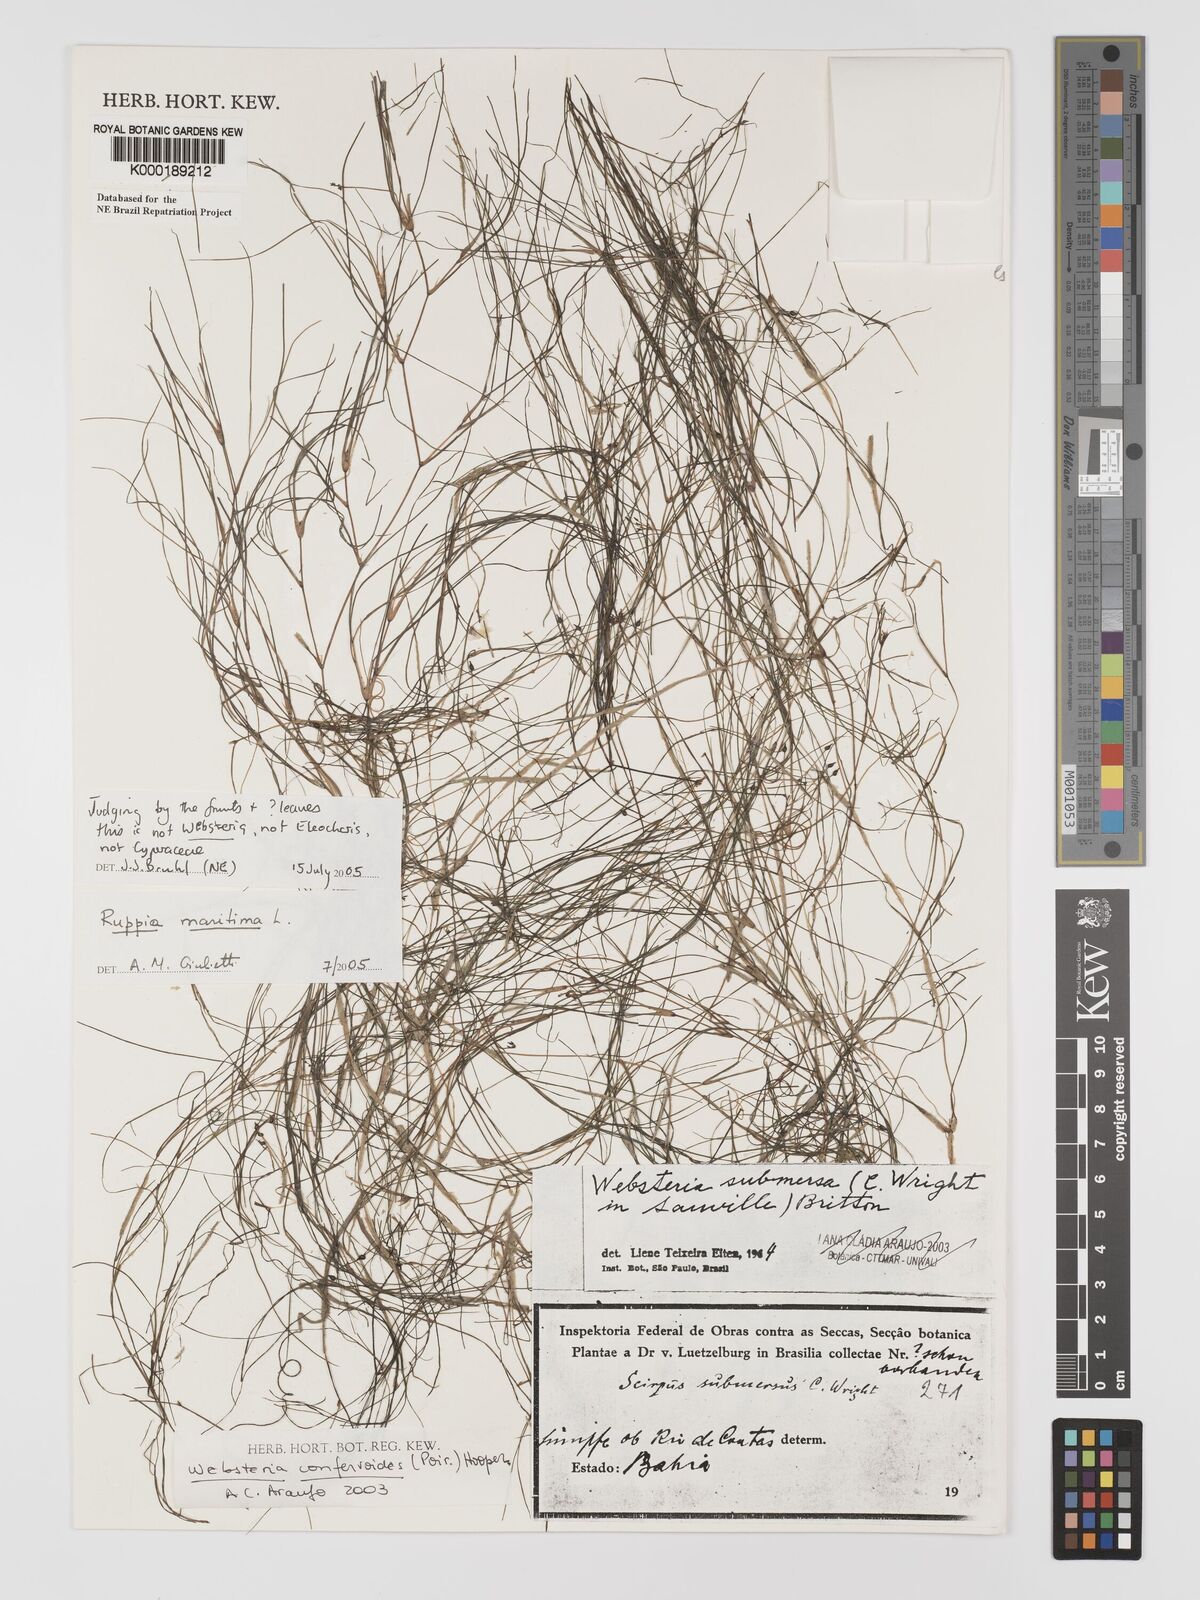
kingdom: Animalia
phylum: Cnidaria
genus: Websteria
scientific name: Websteria
